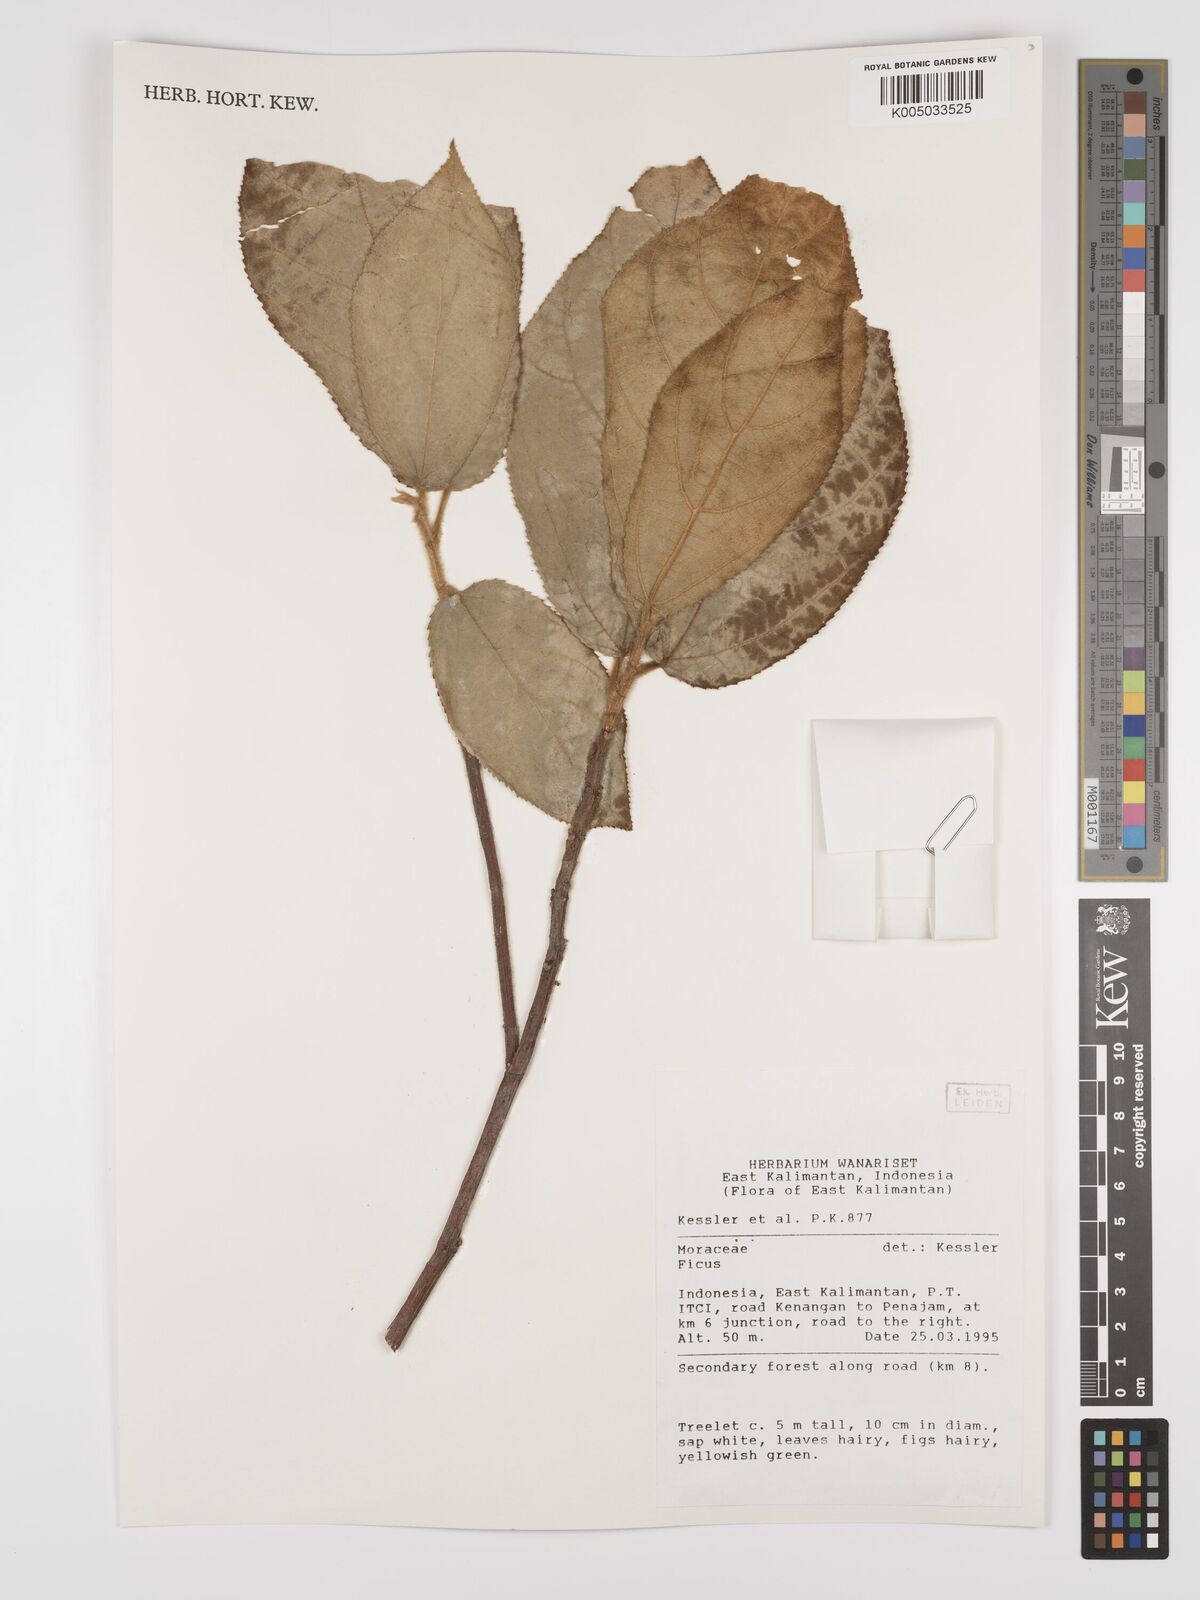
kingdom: Plantae
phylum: Tracheophyta
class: Magnoliopsida
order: Rosales
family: Moraceae
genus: Ficus
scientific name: Ficus
